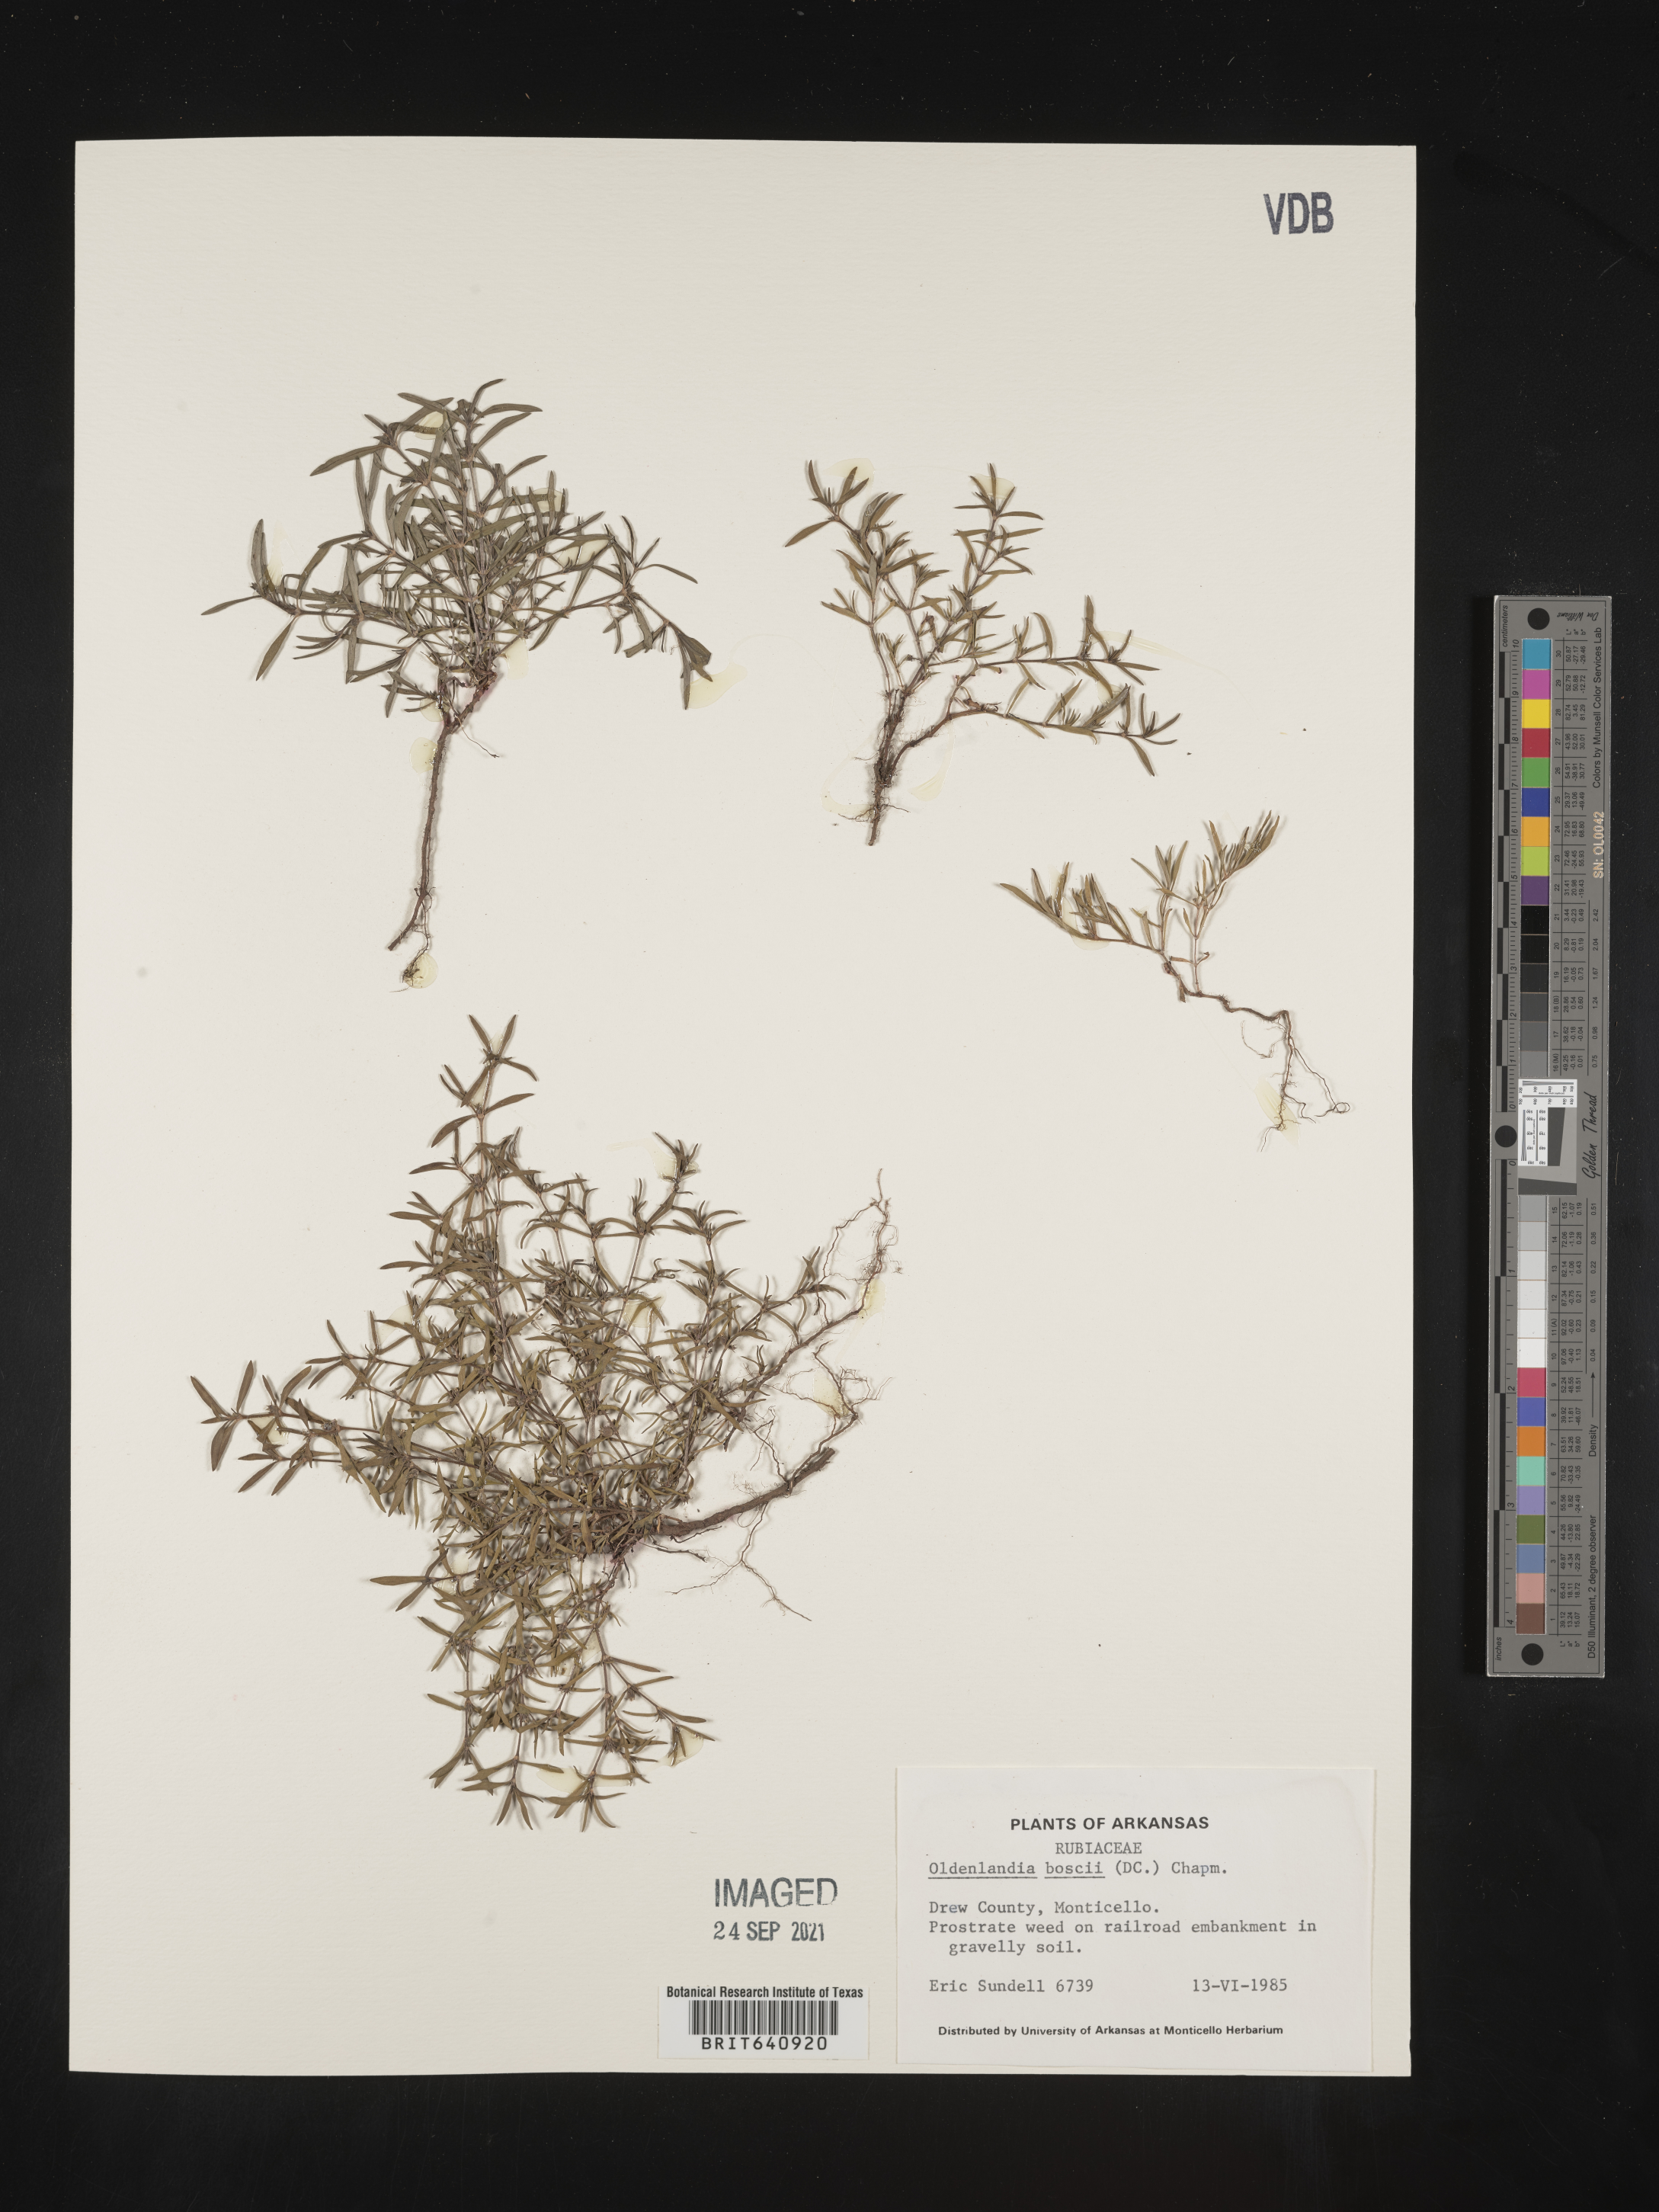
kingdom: Plantae
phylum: Tracheophyta
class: Magnoliopsida
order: Gentianales
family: Rubiaceae
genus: Oldenlandia
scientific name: Oldenlandia boscii
